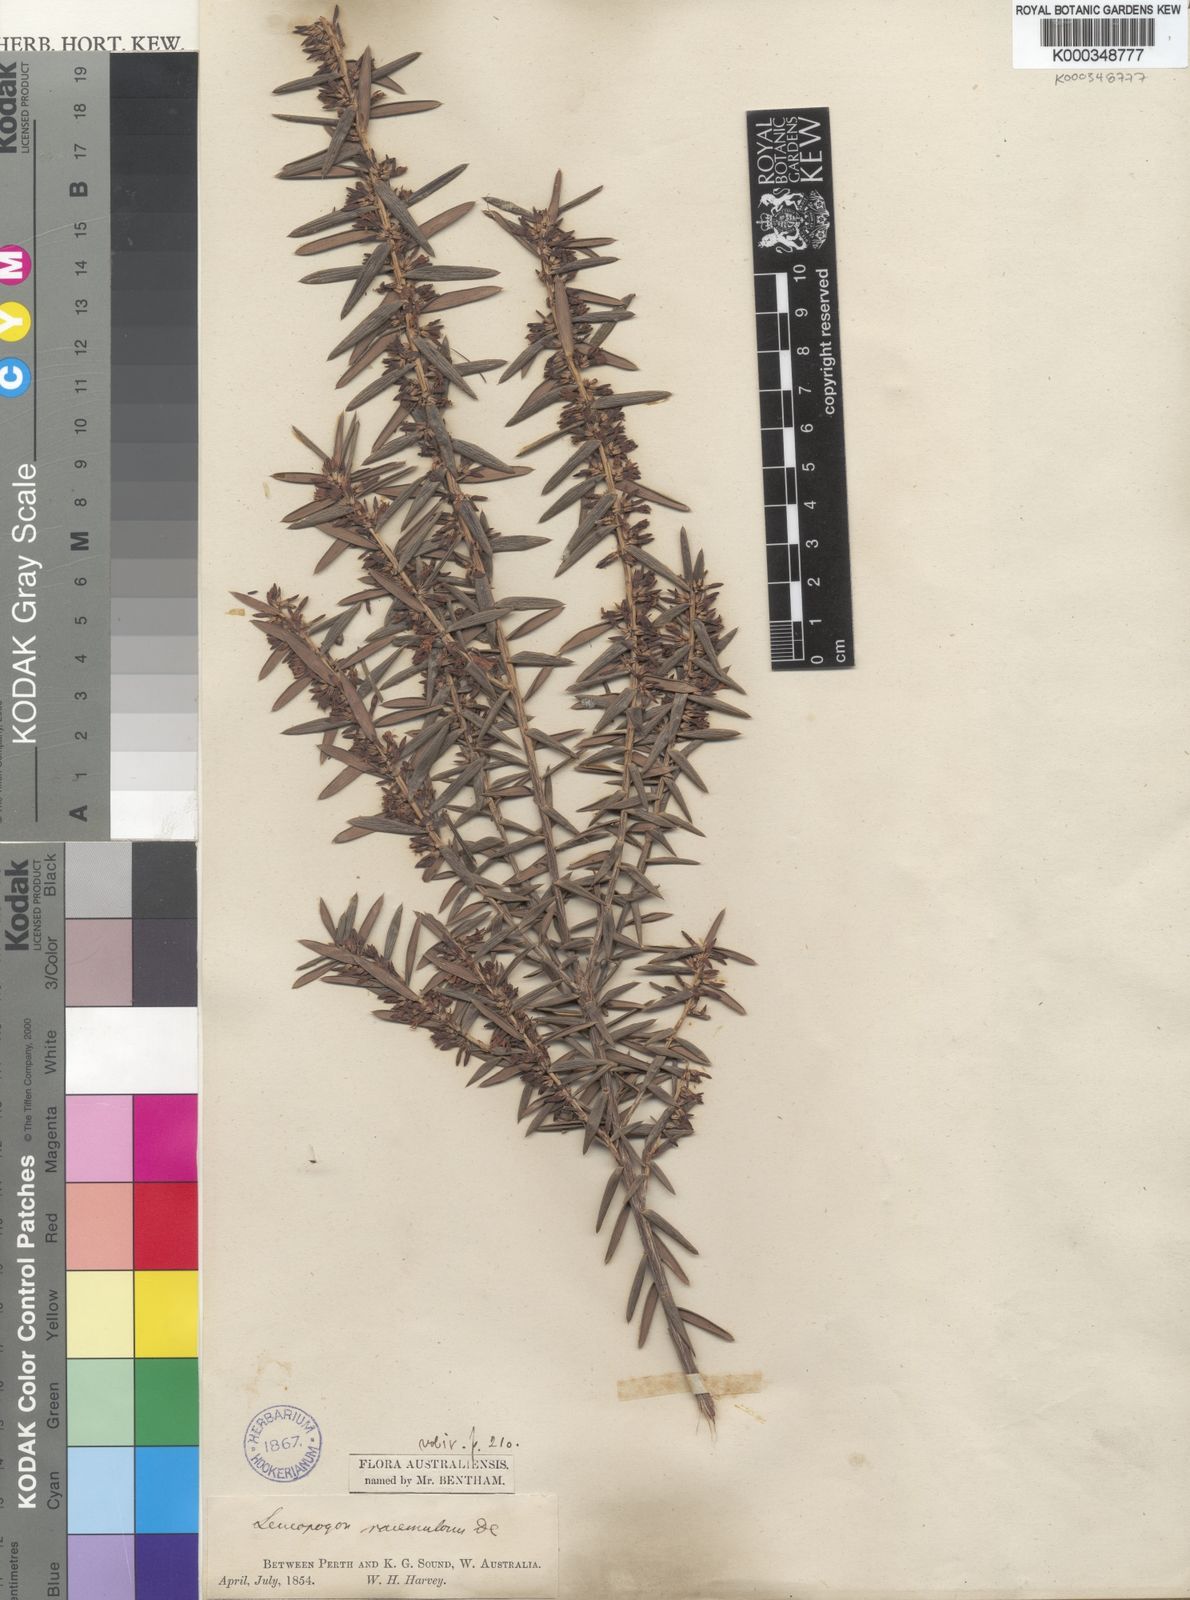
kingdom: Plantae
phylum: Tracheophyta
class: Magnoliopsida
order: Ericales
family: Ericaceae
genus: Styphelia
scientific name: Styphelia racemulosa
